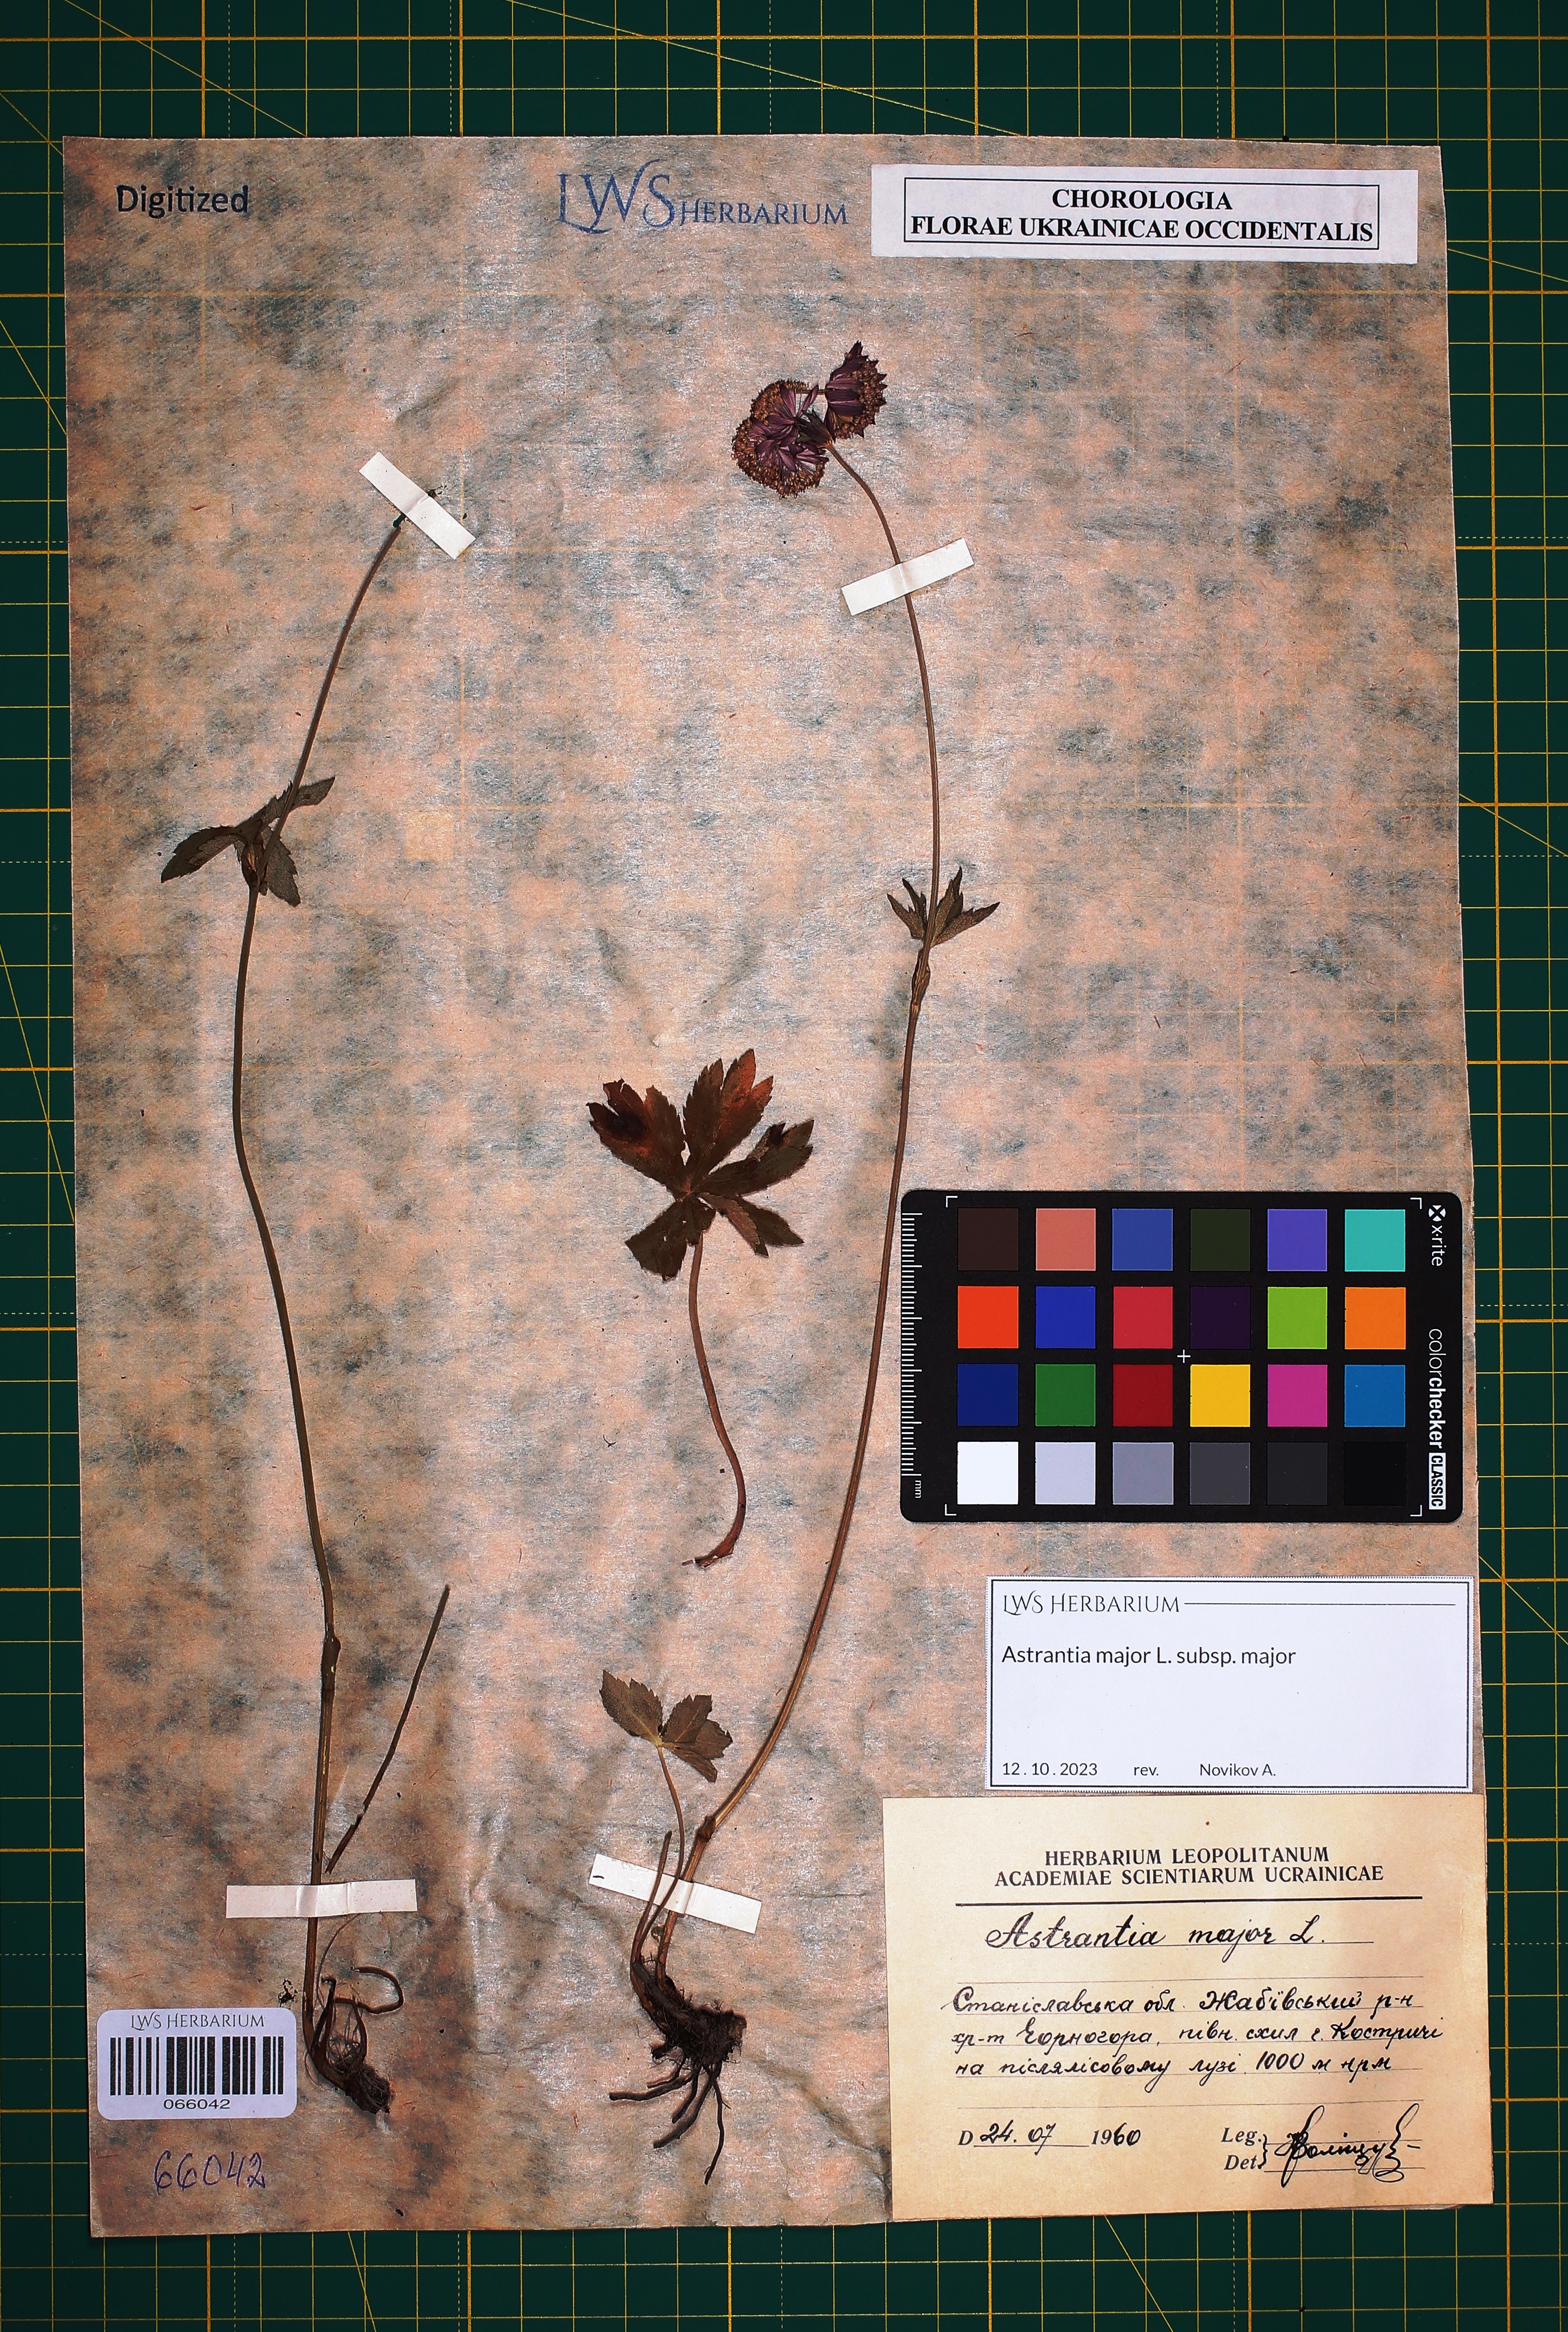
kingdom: Plantae
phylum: Tracheophyta
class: Magnoliopsida
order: Apiales
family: Apiaceae
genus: Astrantia
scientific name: Astrantia major
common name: Greater masterwort
